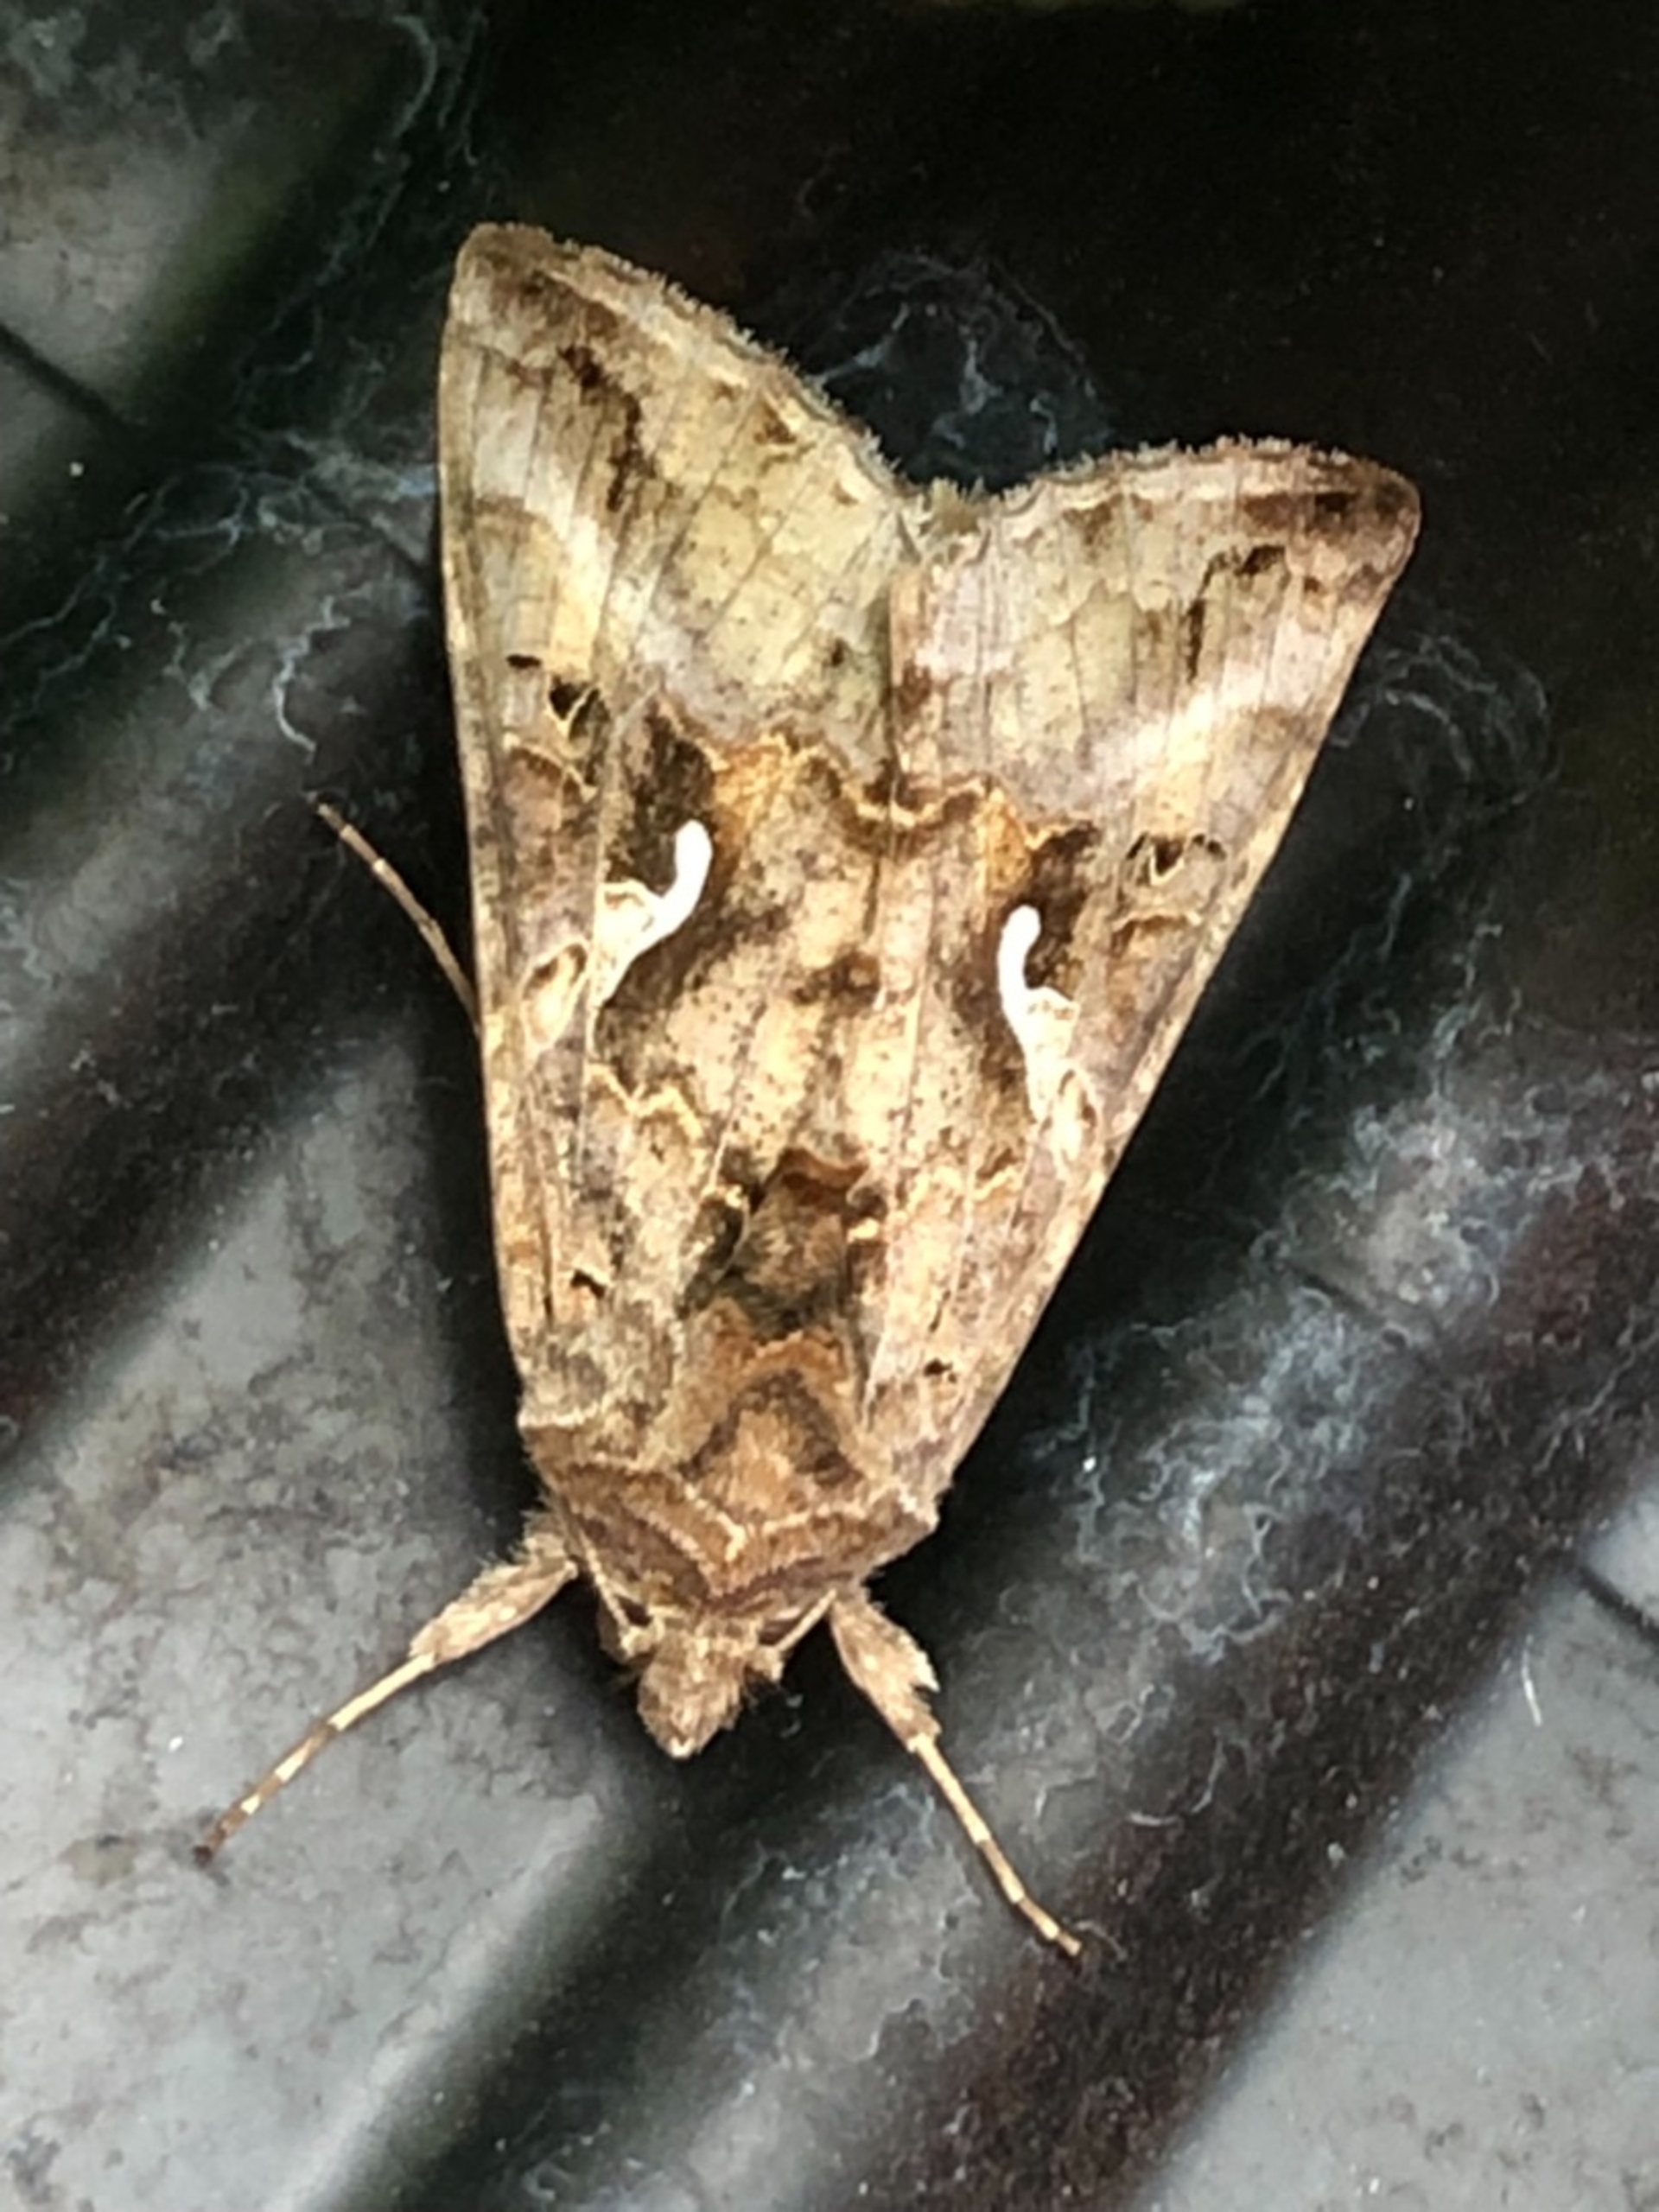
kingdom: Animalia
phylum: Arthropoda
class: Insecta
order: Lepidoptera
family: Noctuidae
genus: Autographa
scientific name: Autographa gamma
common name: Gammaugle
